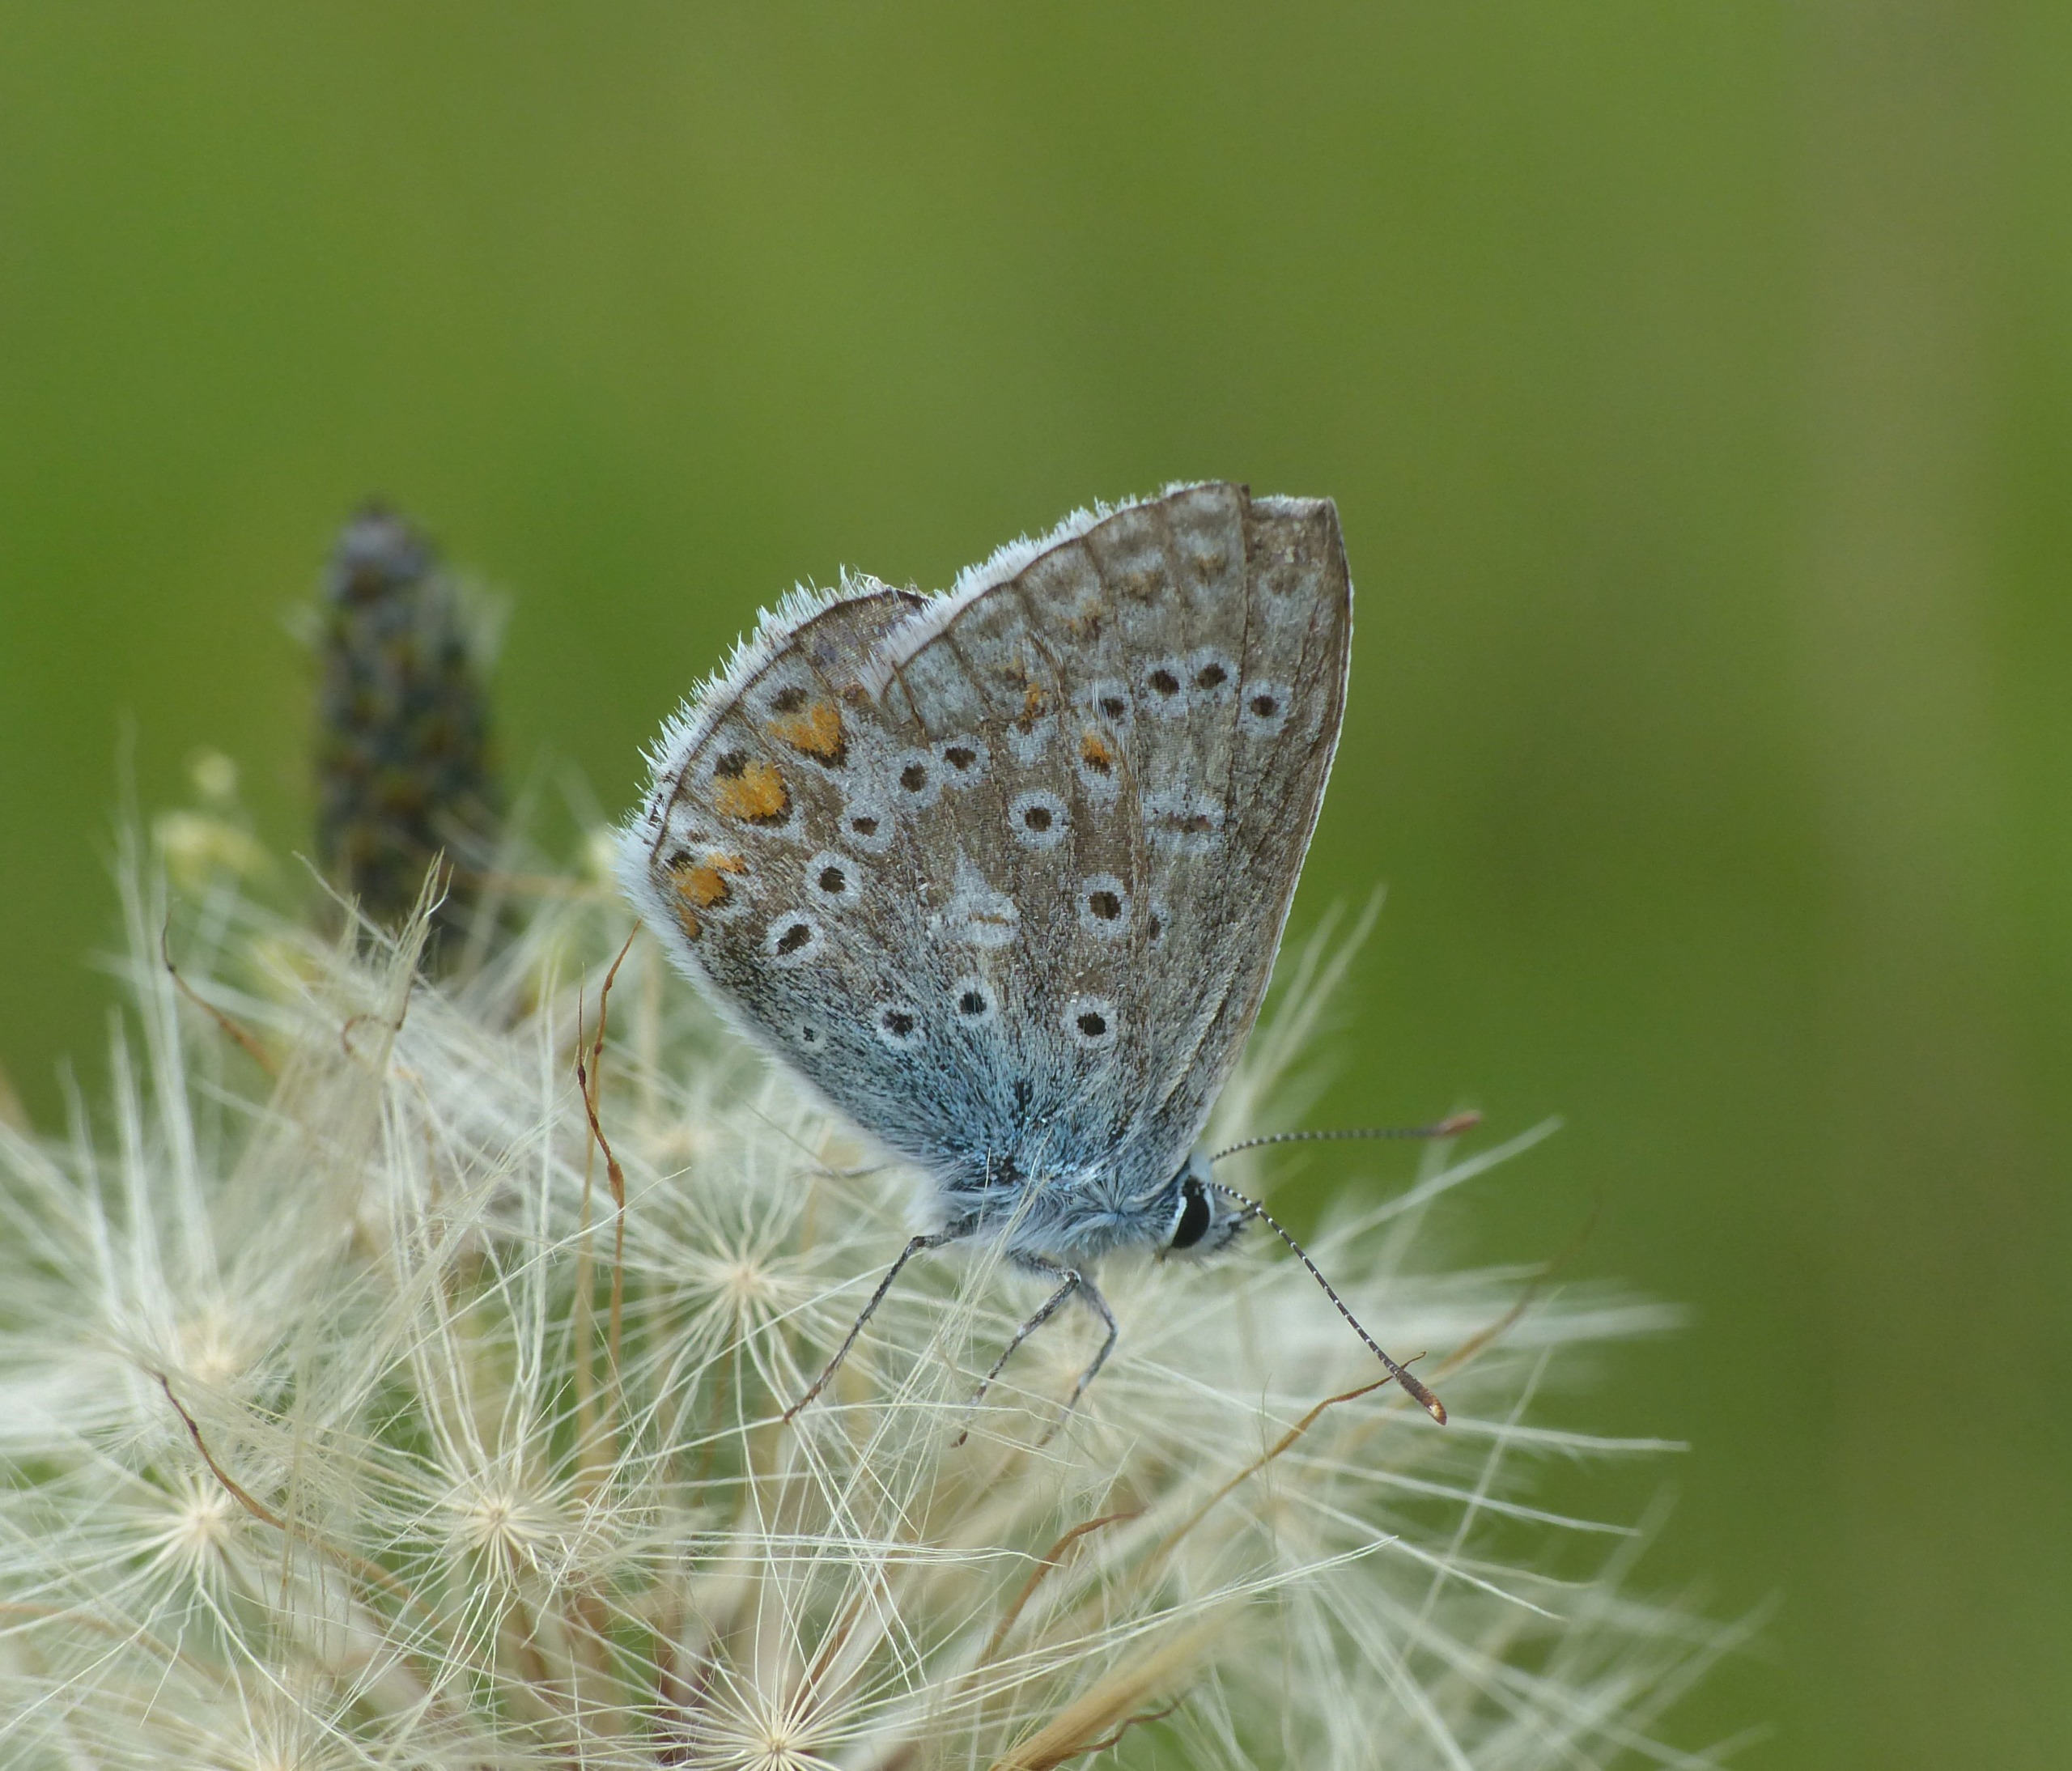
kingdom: Animalia
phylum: Arthropoda
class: Insecta
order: Lepidoptera
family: Lycaenidae
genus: Polyommatus
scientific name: Polyommatus icarus
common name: Almindelig blåfugl
